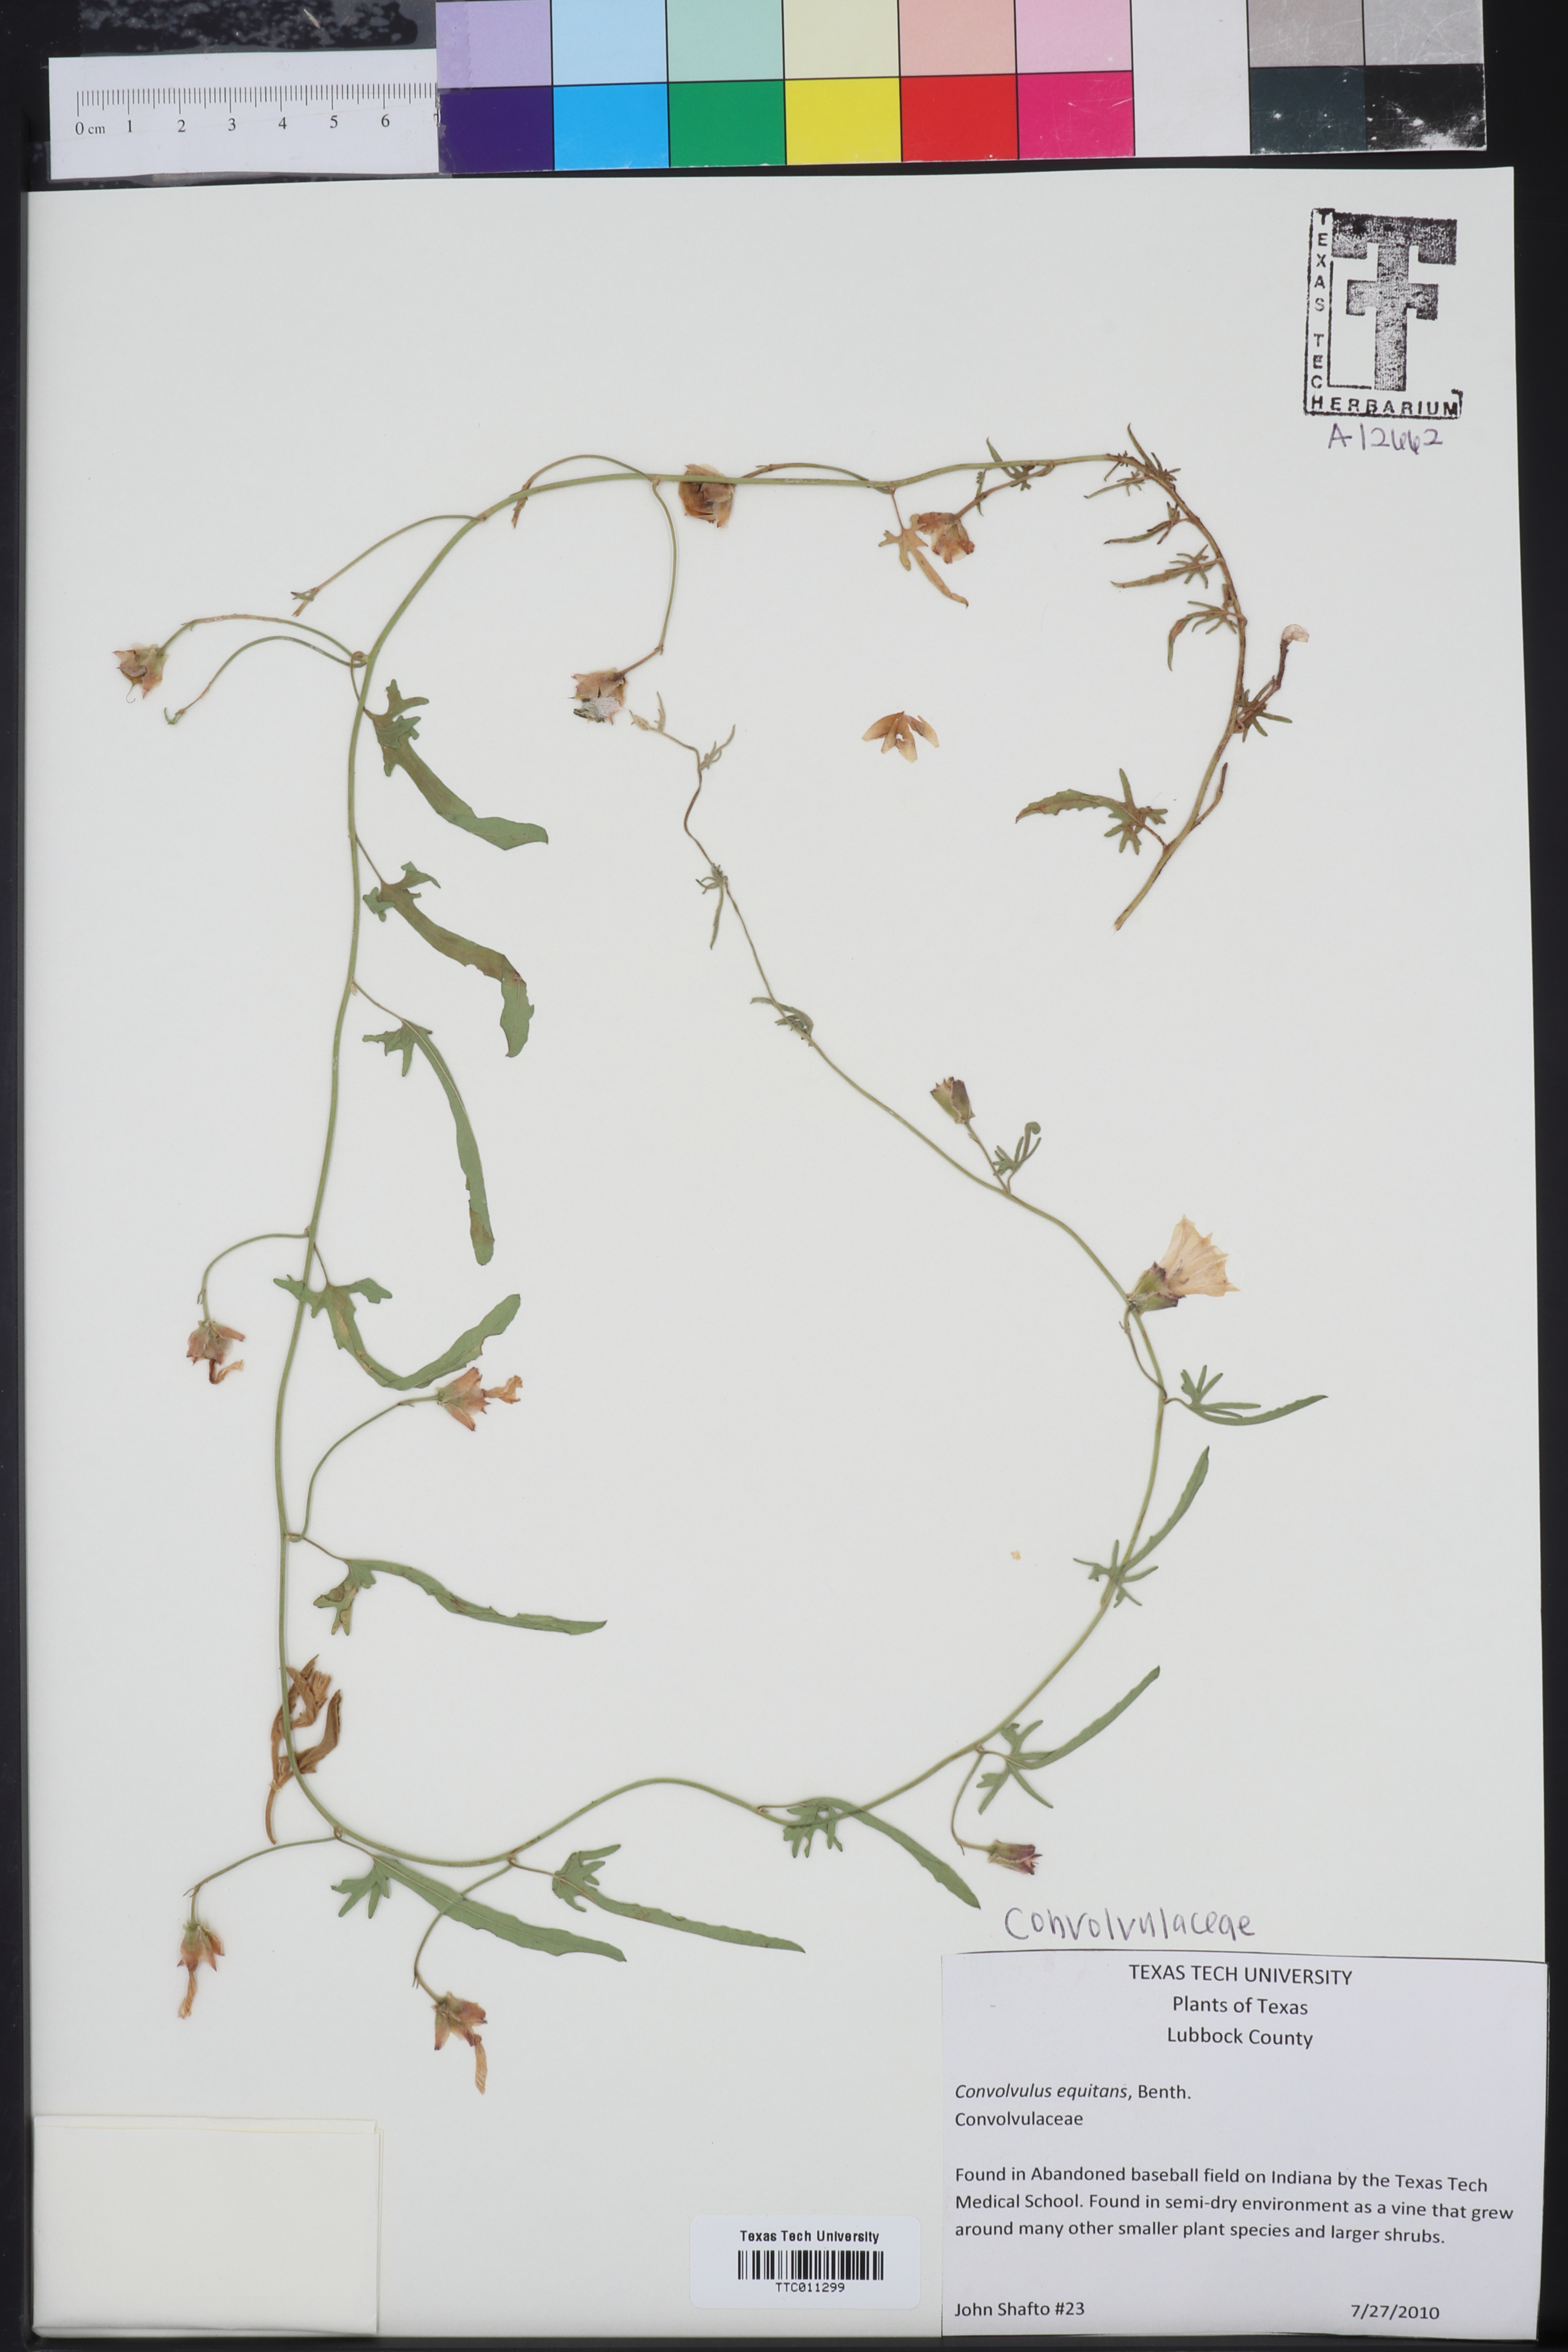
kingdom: Plantae
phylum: Tracheophyta
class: Magnoliopsida
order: Solanales
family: Convolvulaceae
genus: Convolvulus
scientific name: Convolvulus equitans
